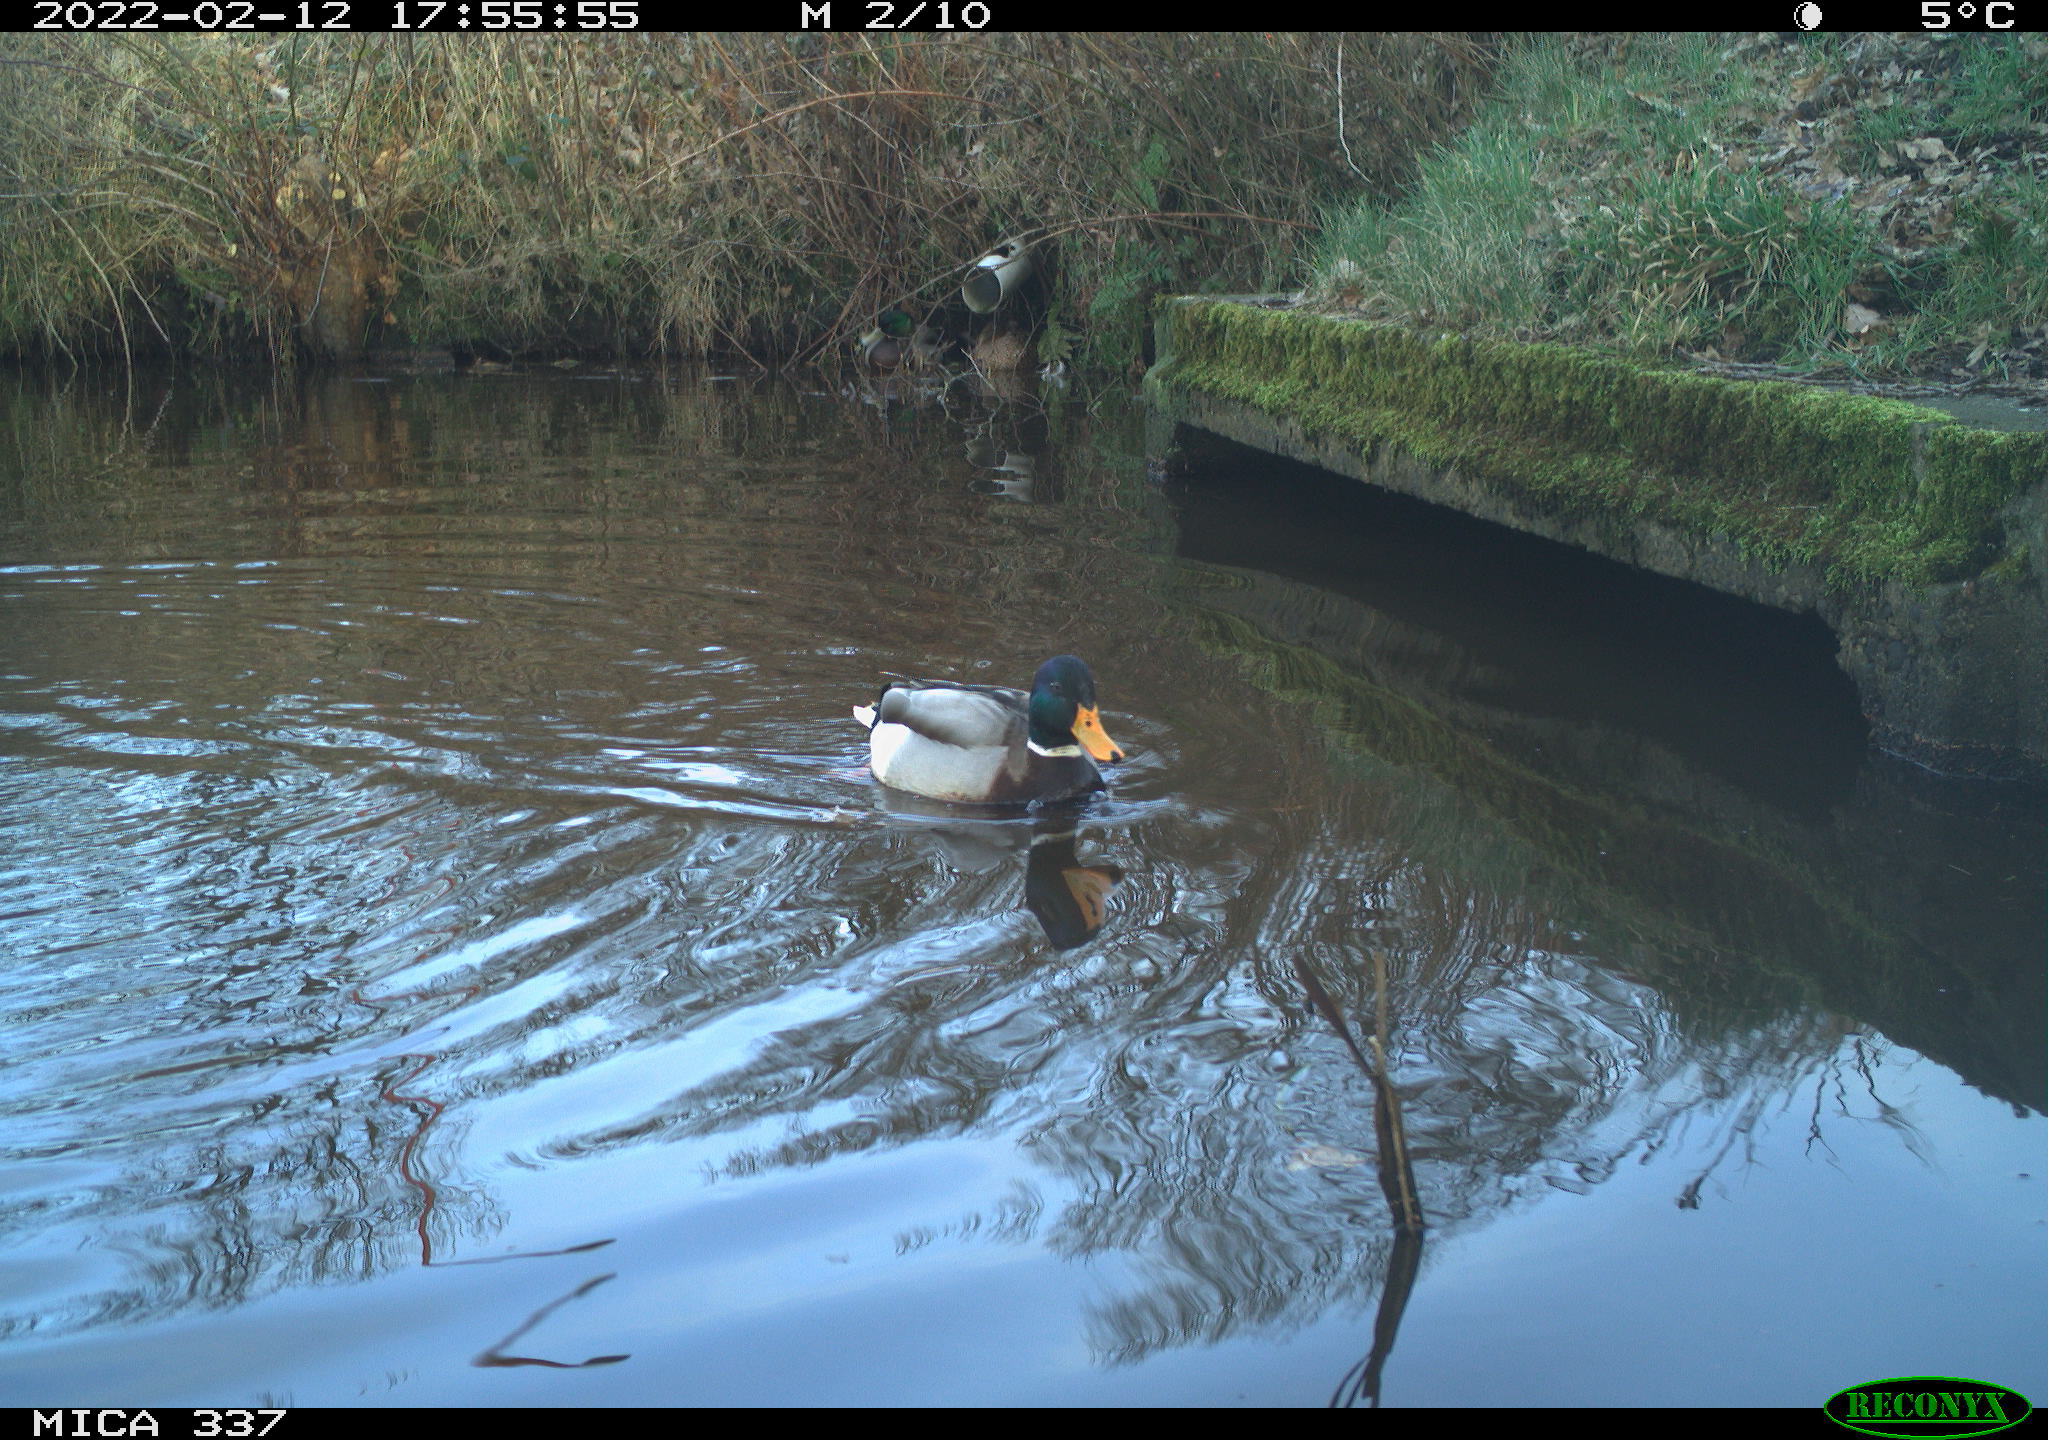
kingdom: Animalia
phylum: Chordata
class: Aves
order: Anseriformes
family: Anatidae
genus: Anas
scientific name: Anas platyrhynchos
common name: Mallard
